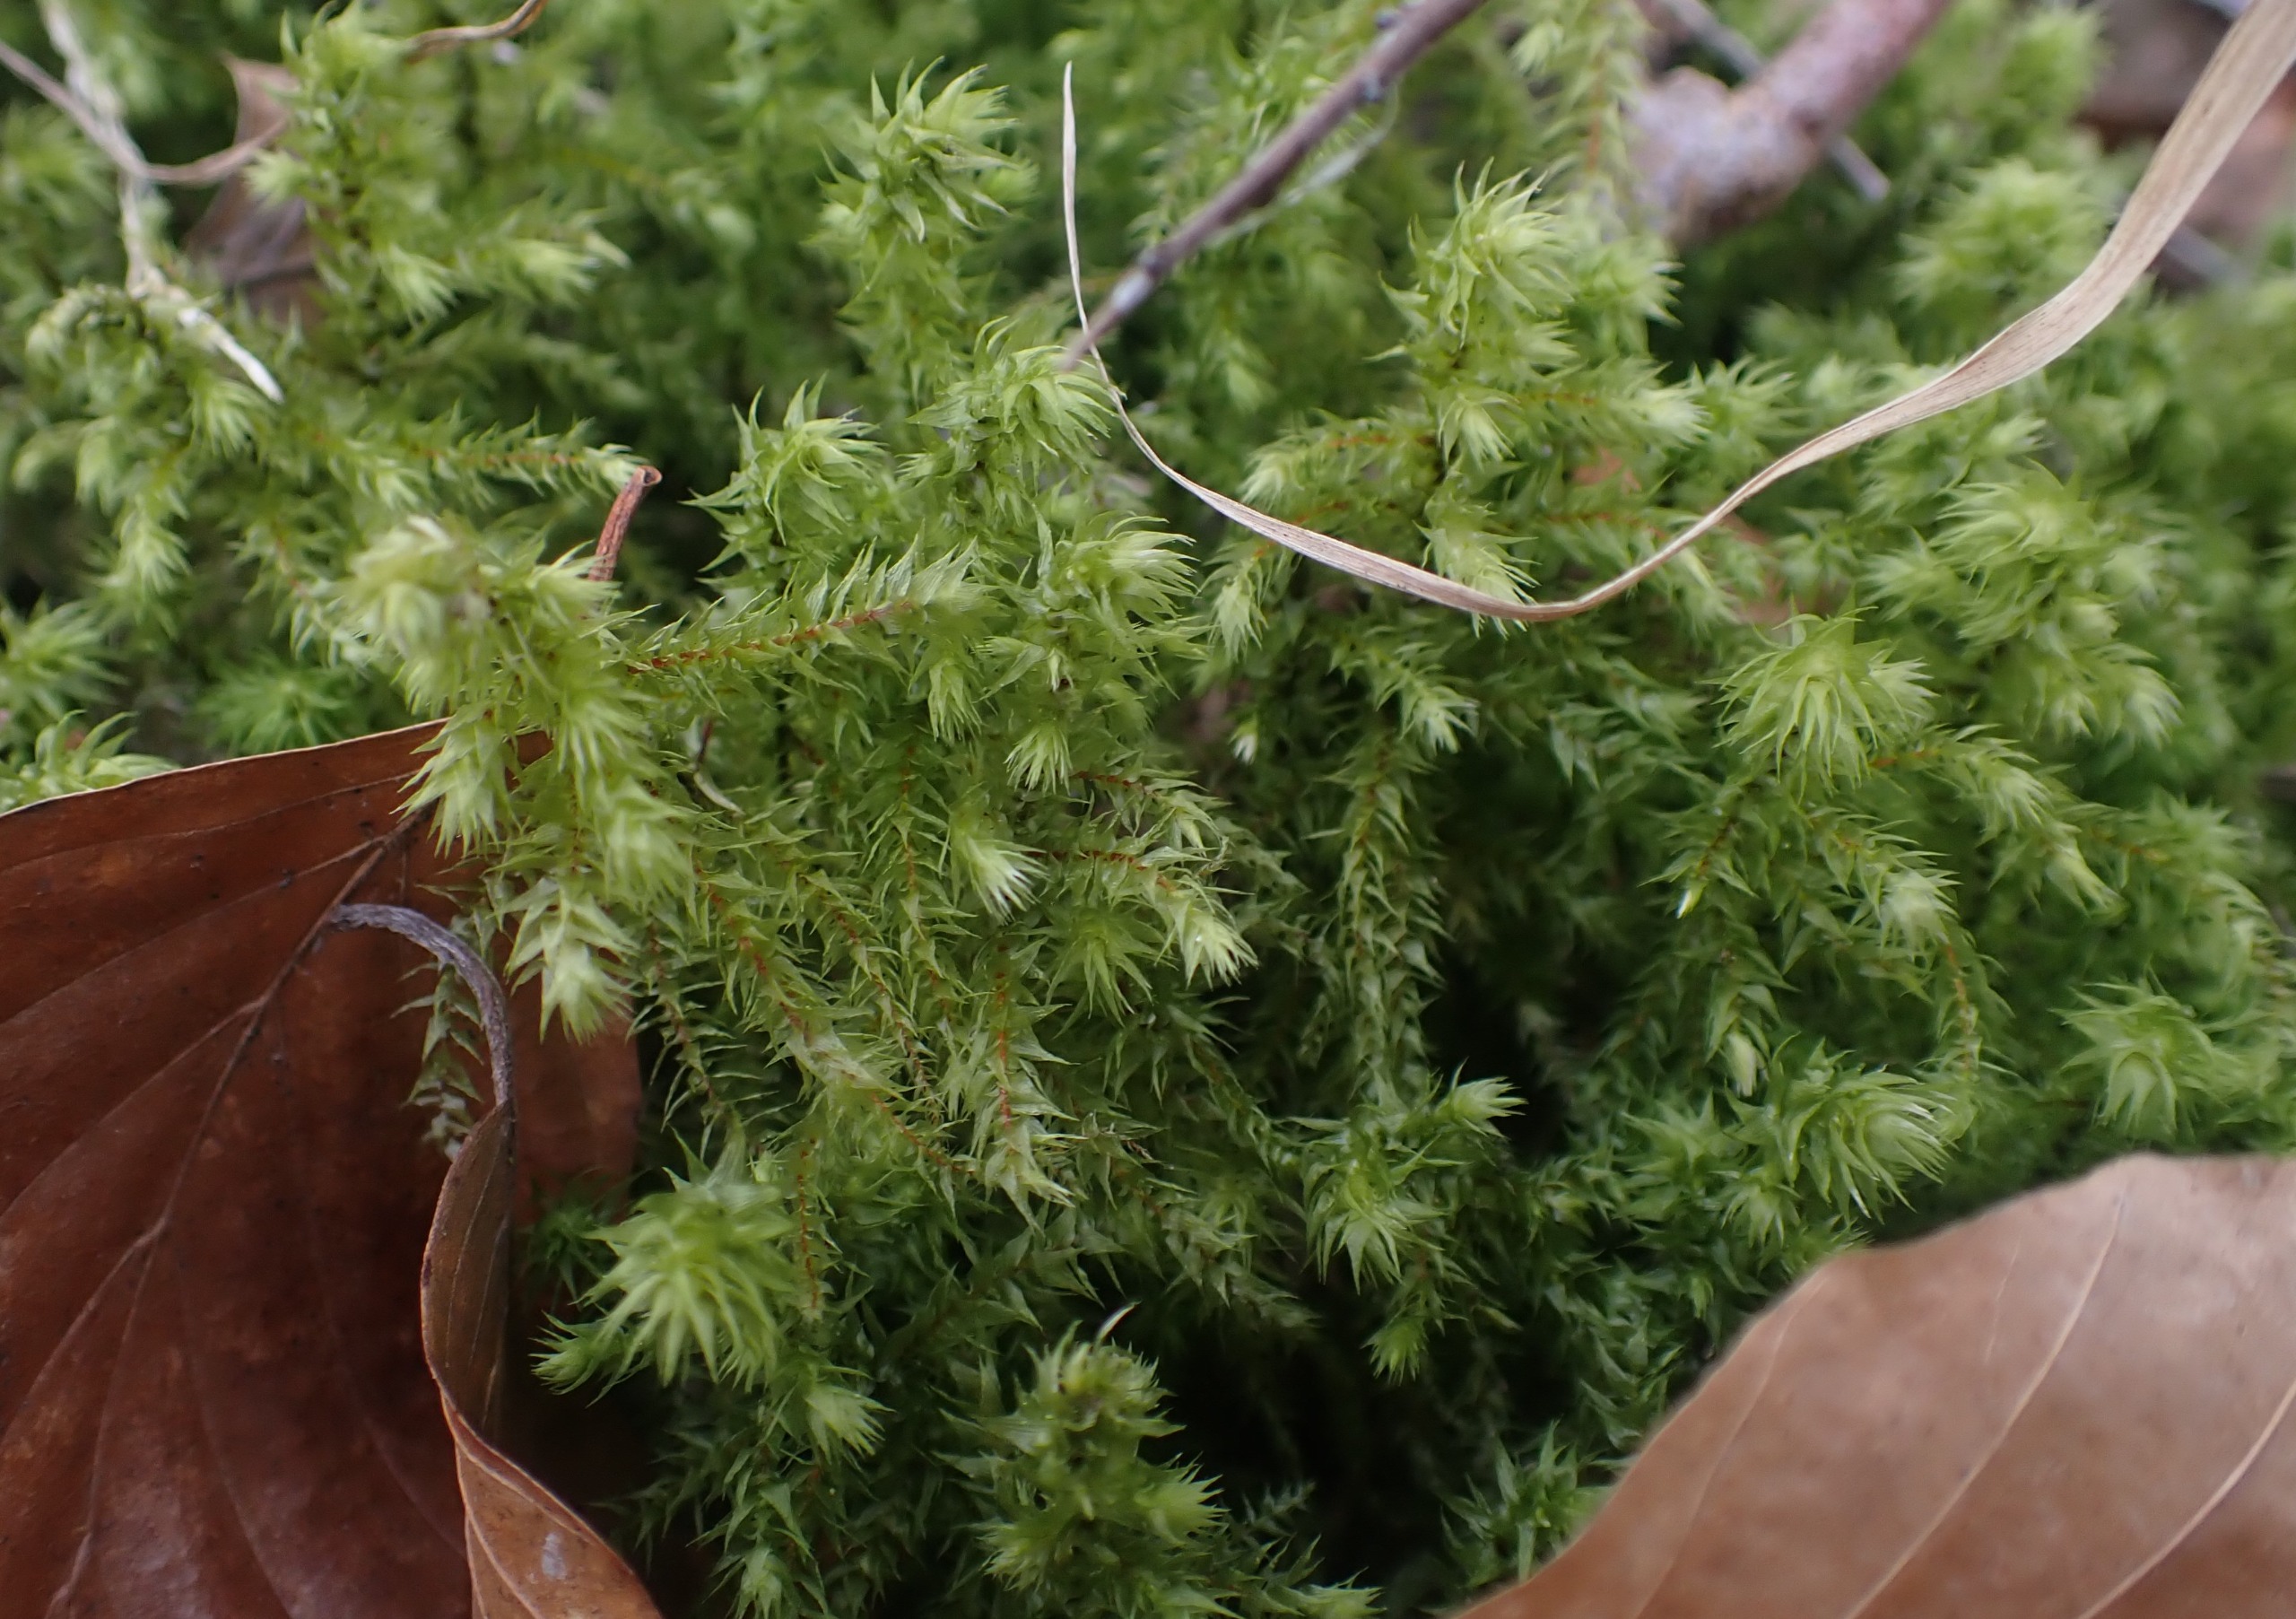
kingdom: Plantae
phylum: Bryophyta
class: Bryopsida
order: Hypnales
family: Hylocomiaceae
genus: Hylocomiadelphus
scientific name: Hylocomiadelphus triquetrus
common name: Stor kransemos
